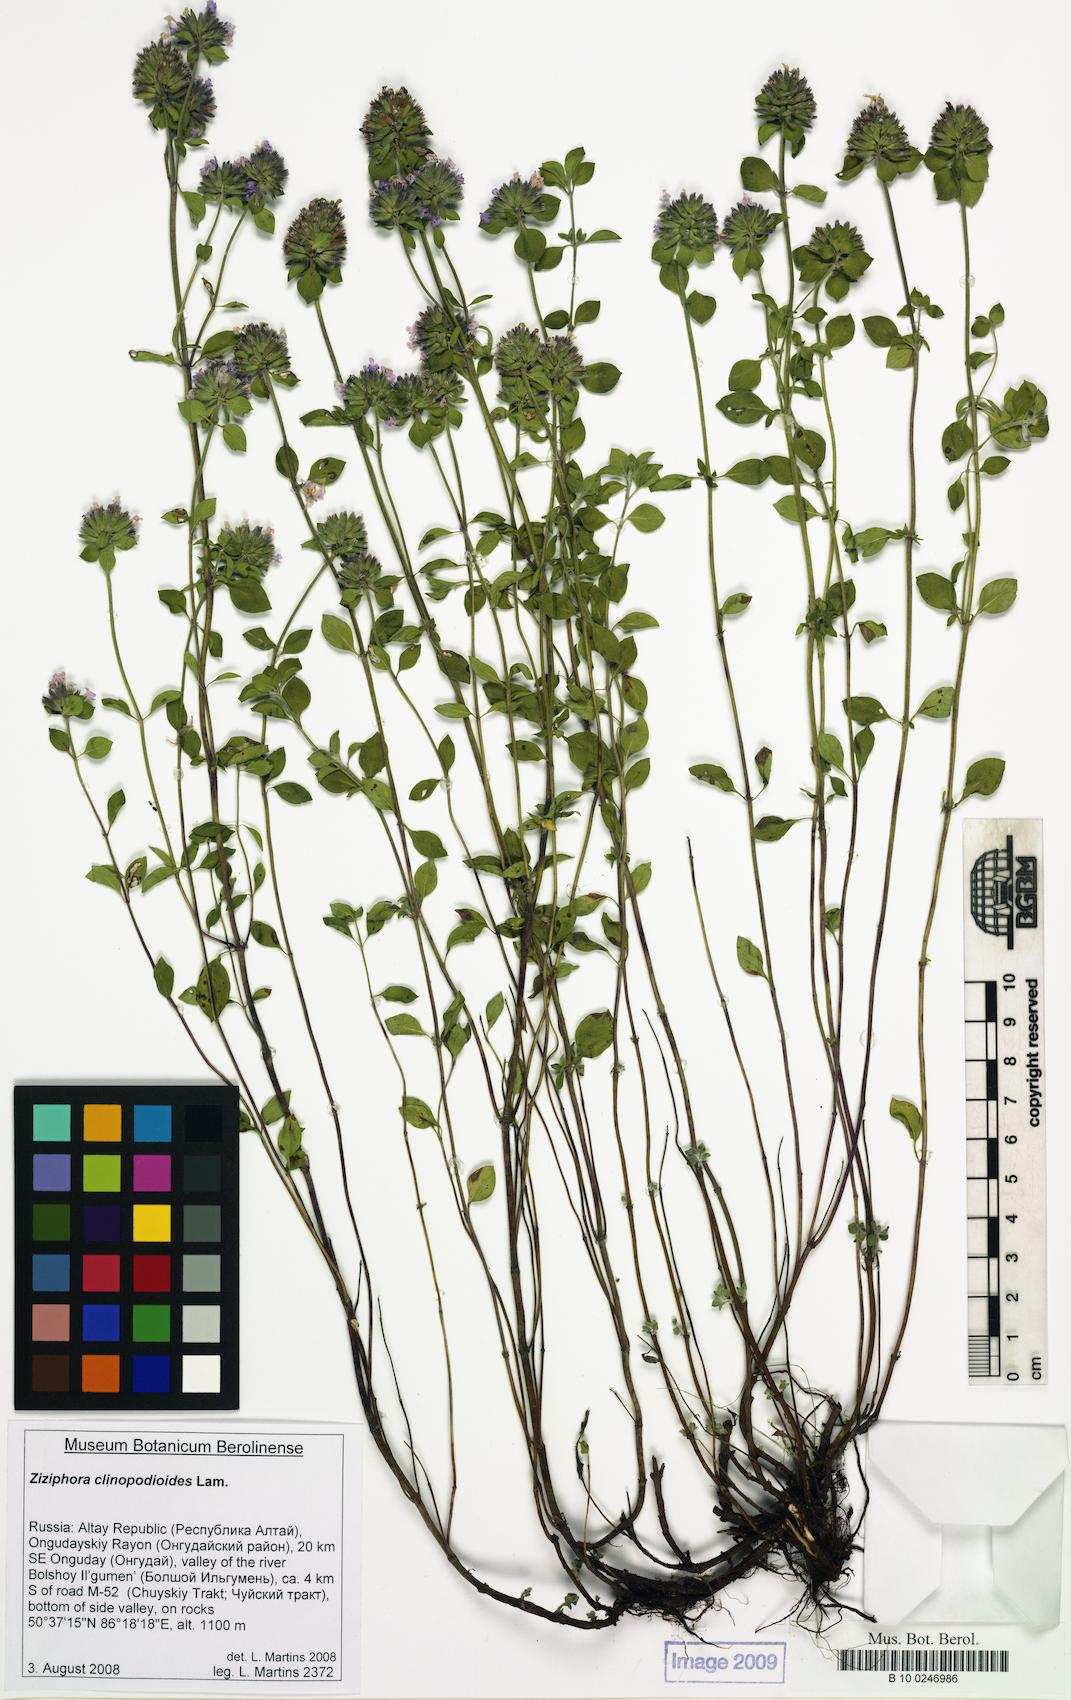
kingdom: Plantae
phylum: Tracheophyta
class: Magnoliopsida
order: Lamiales
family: Lamiaceae
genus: Ziziphora
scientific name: Ziziphora clinopodioides
